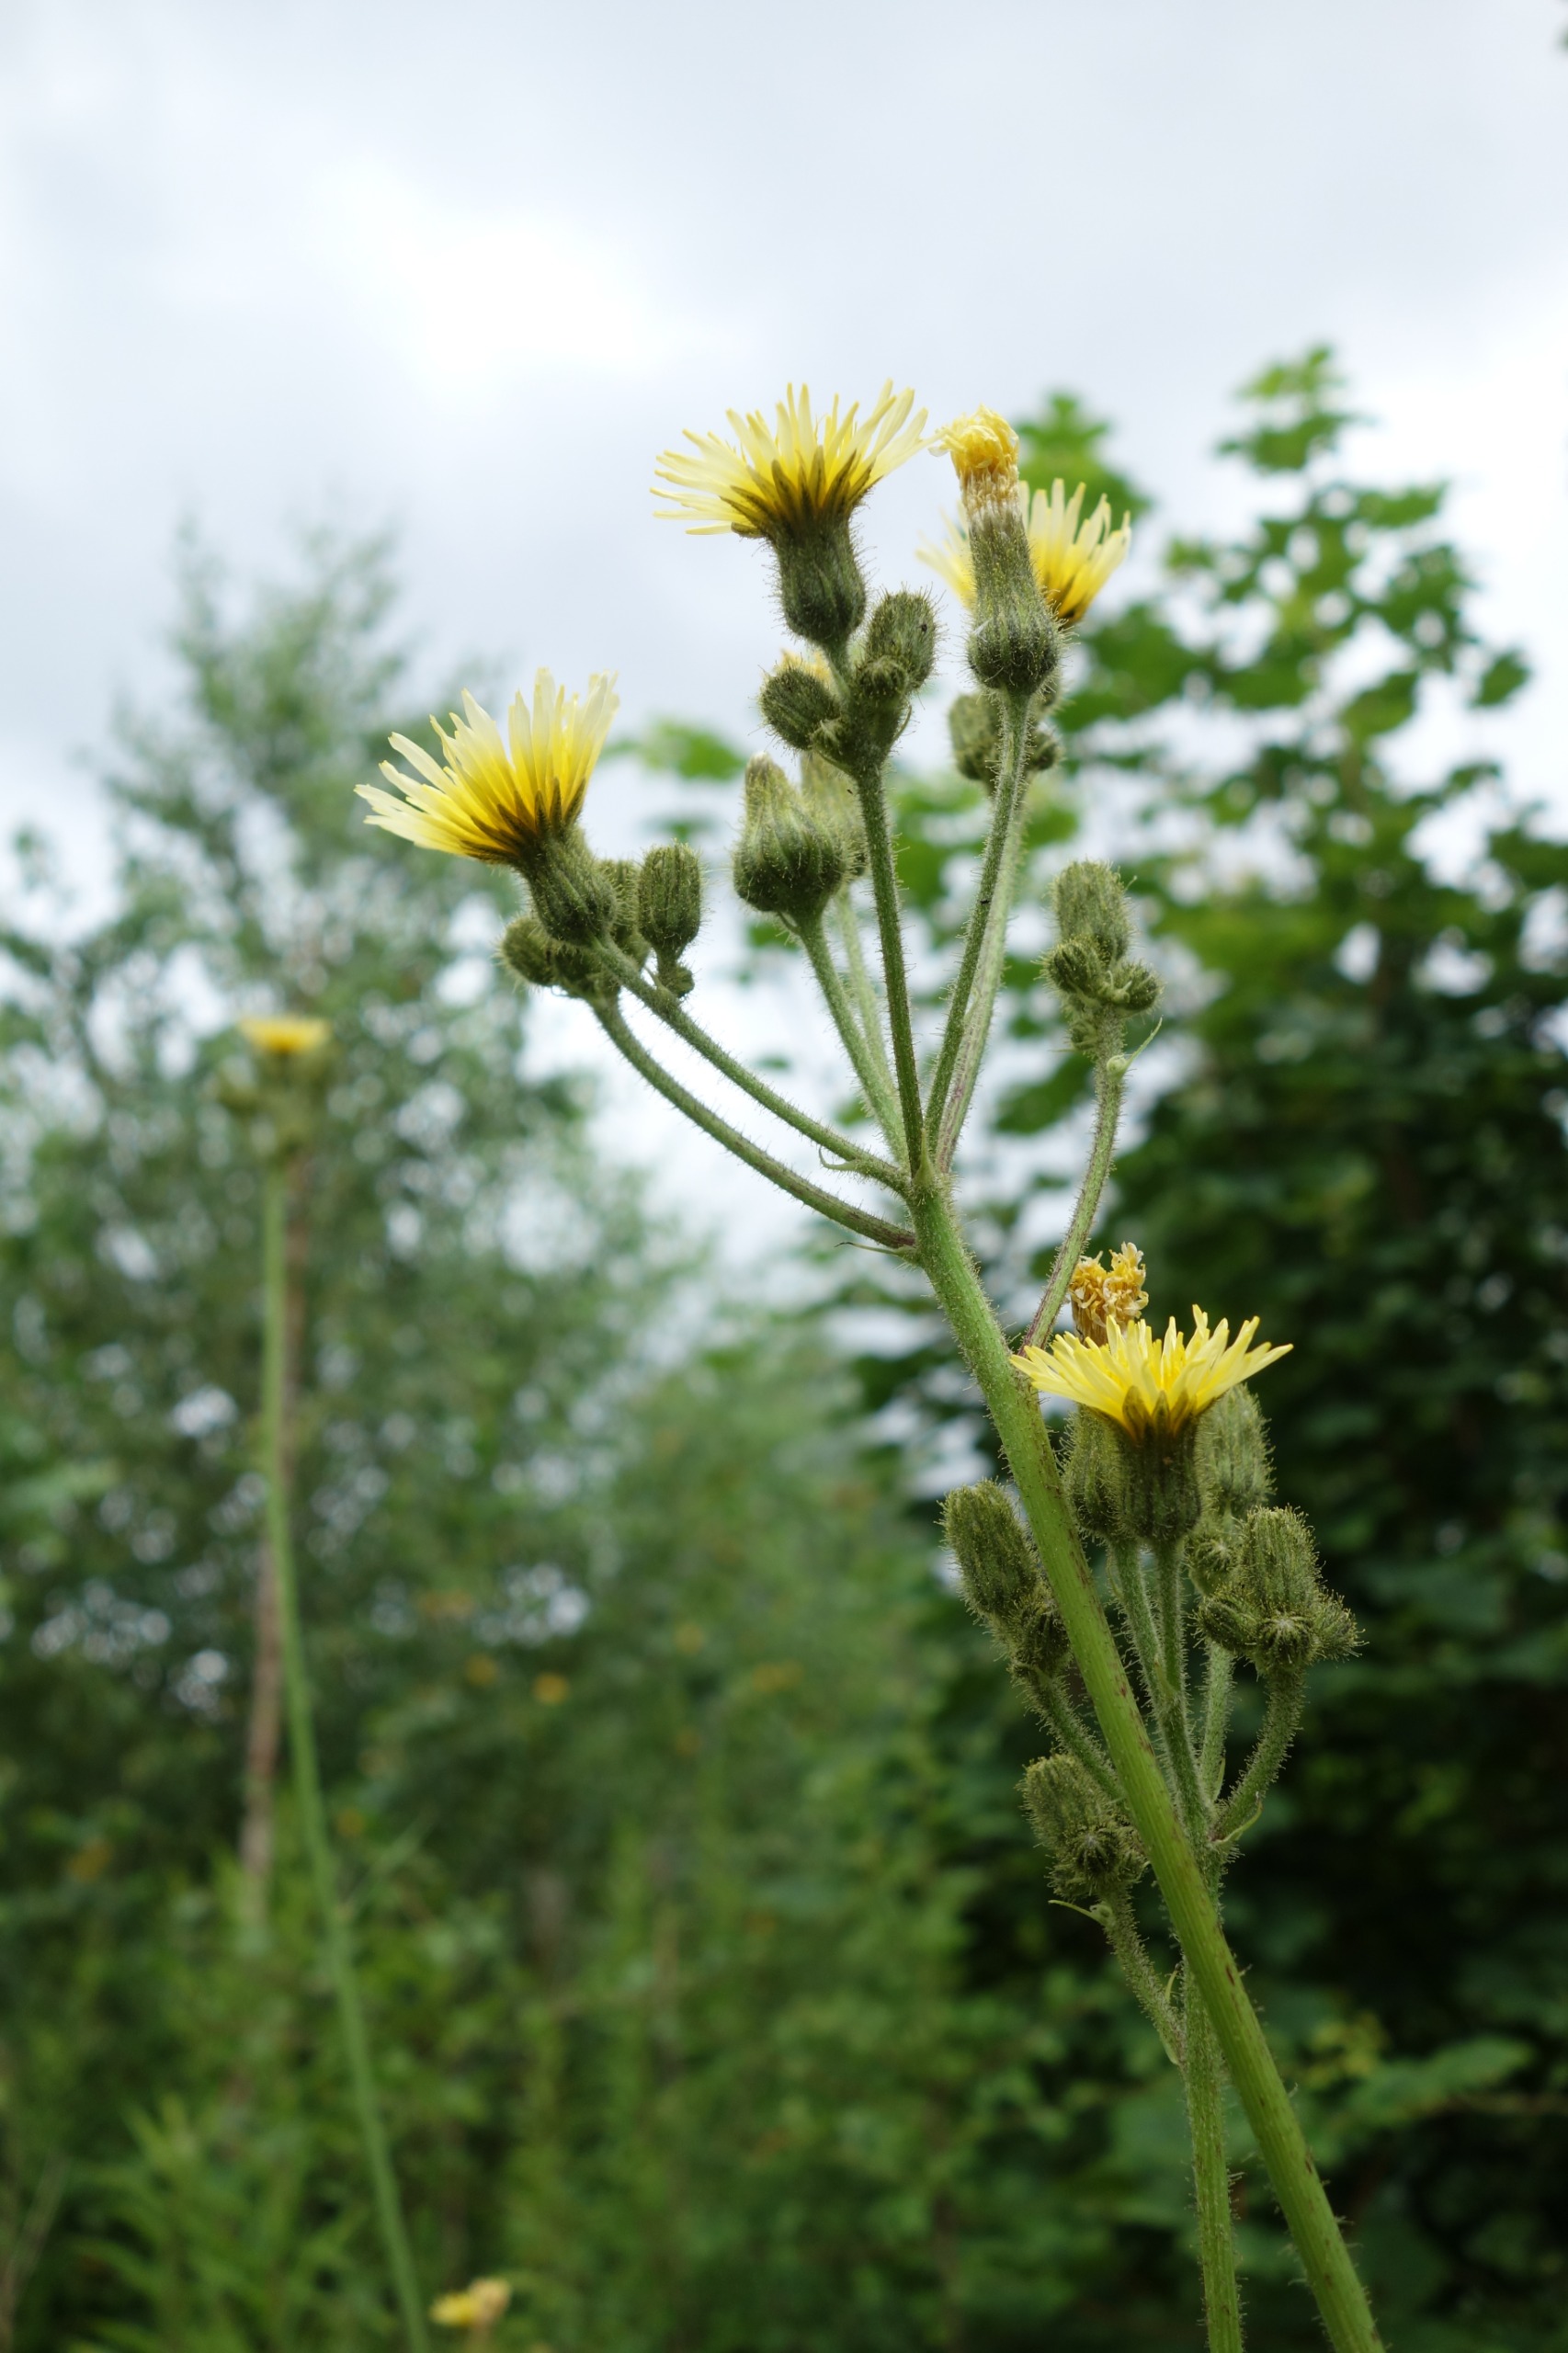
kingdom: Plantae
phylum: Tracheophyta
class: Magnoliopsida
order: Asterales
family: Asteraceae
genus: Sonchus
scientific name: Sonchus palustris
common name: Kær-svinemælk
